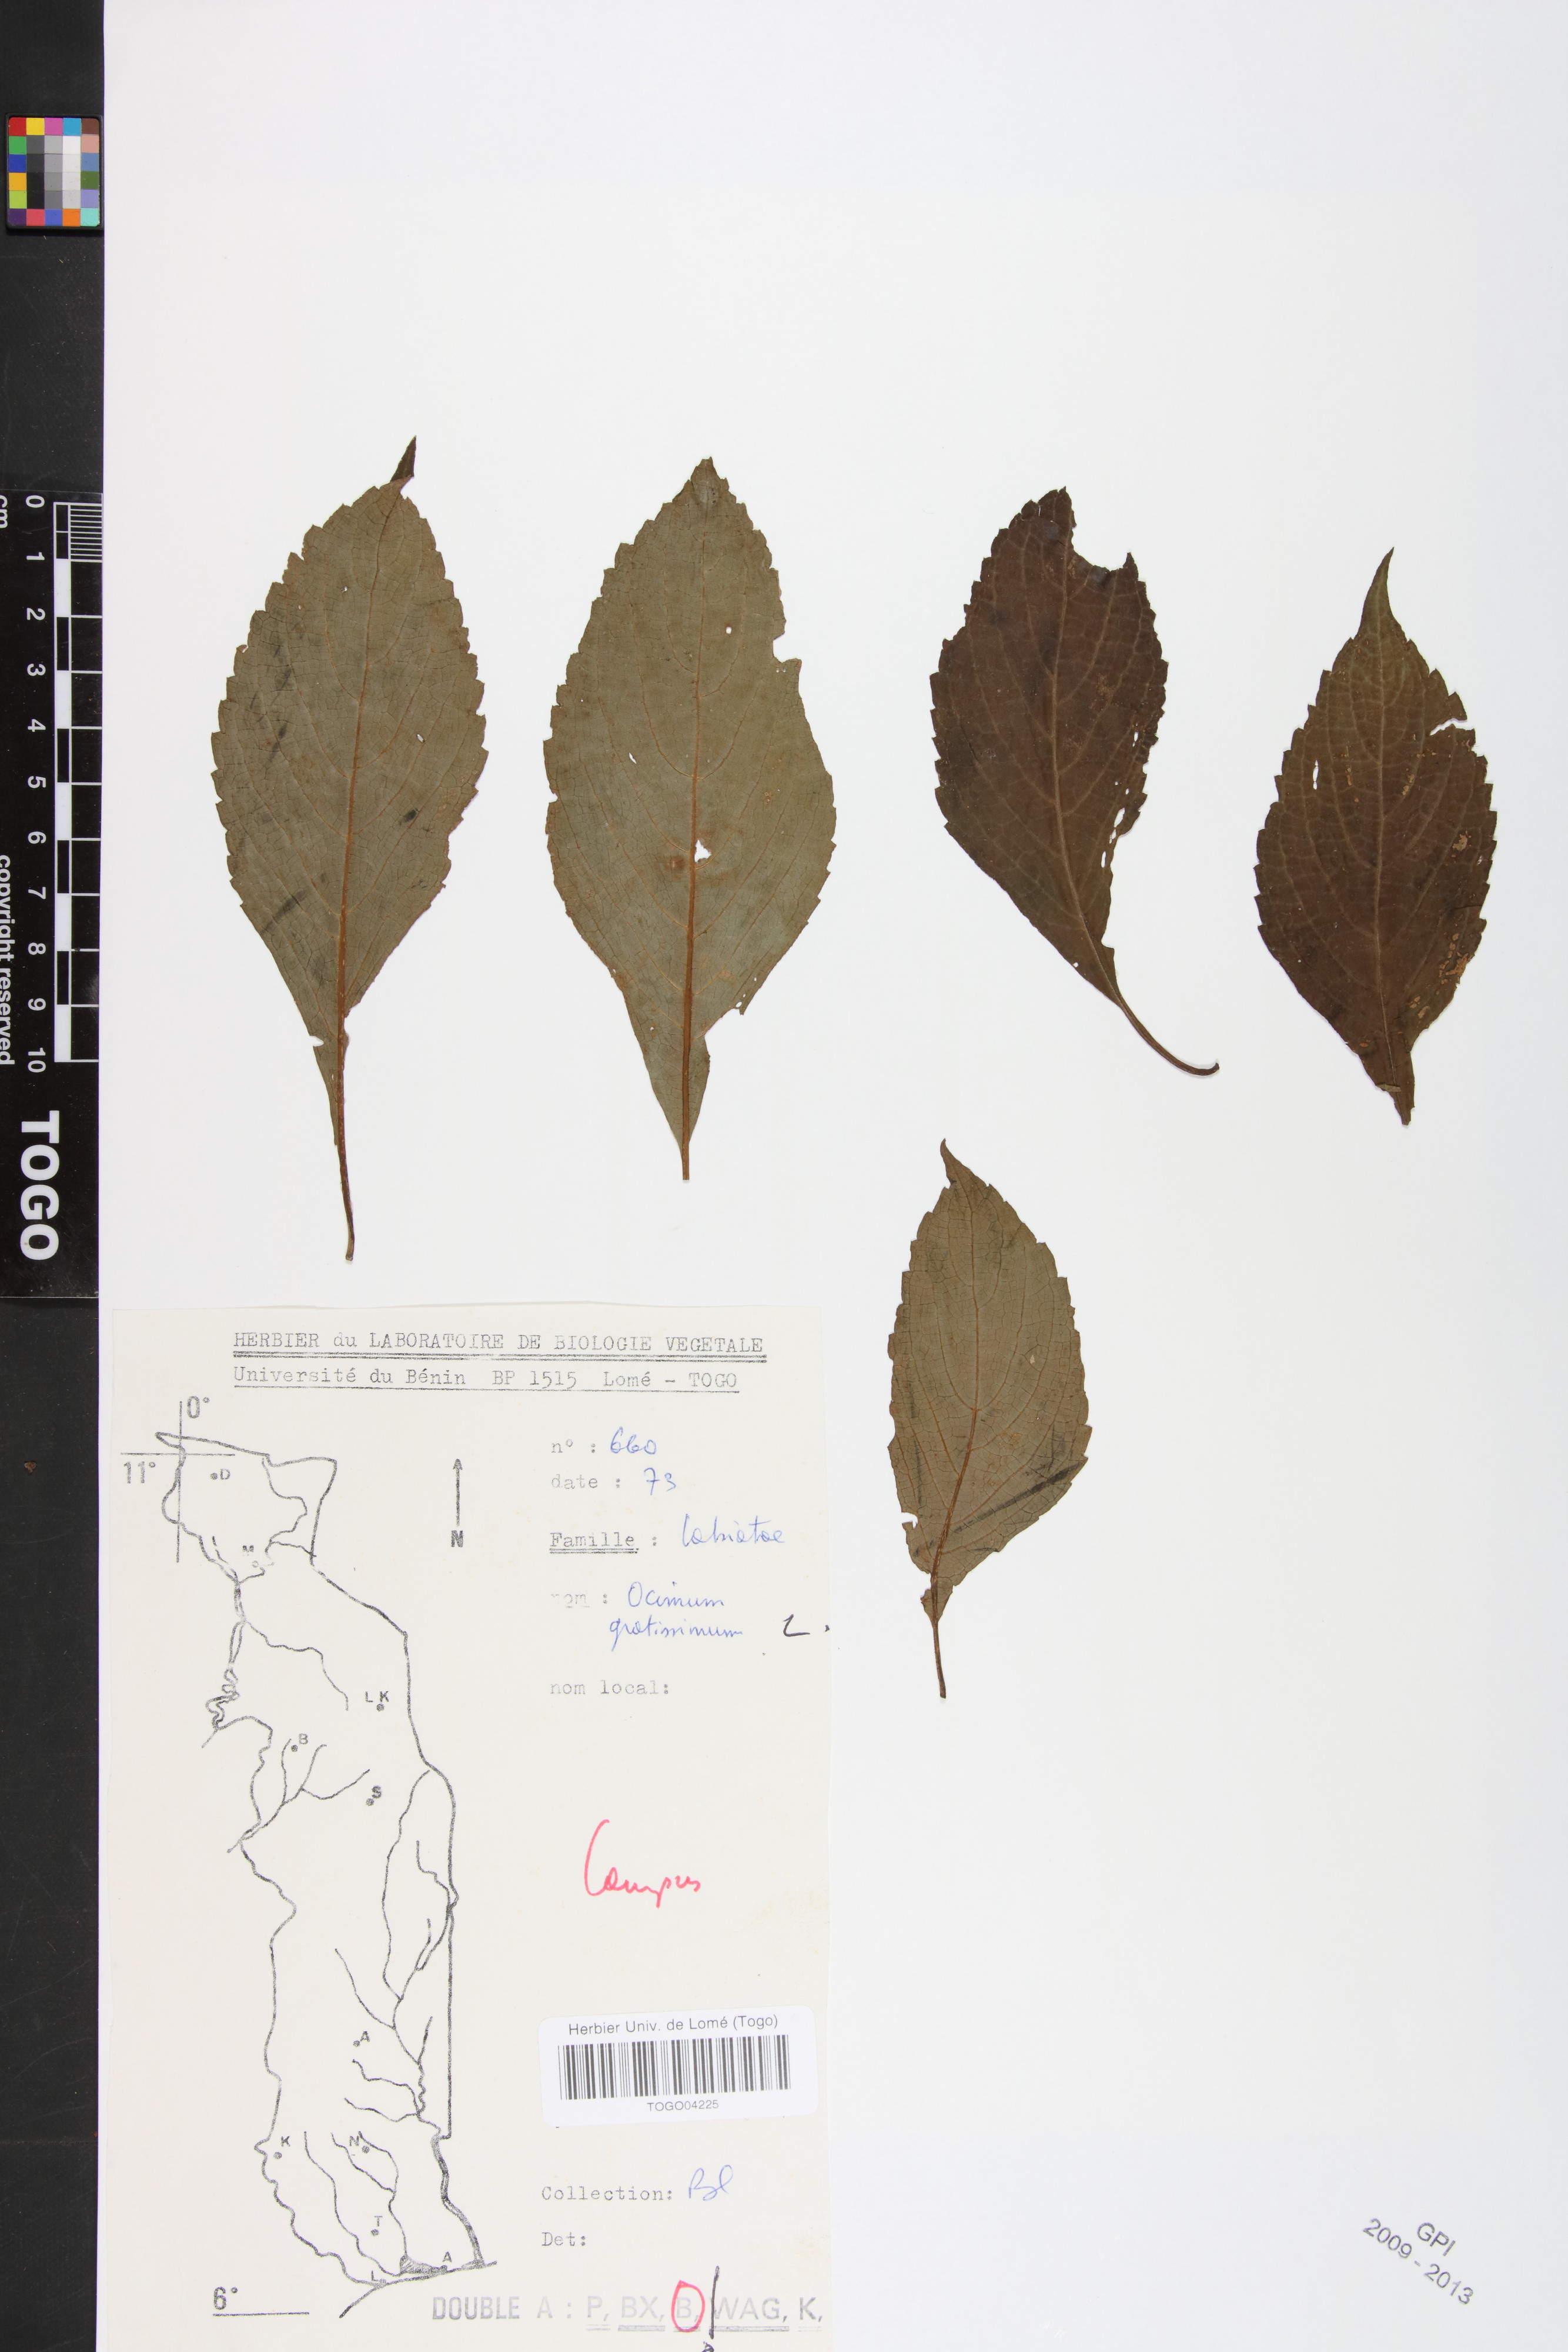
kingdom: Plantae
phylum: Tracheophyta
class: Magnoliopsida
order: Lamiales
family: Lamiaceae
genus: Ocimum
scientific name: Ocimum gratissimum
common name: African basil
